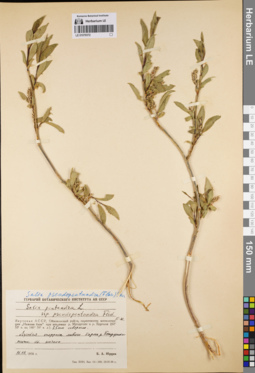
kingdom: Plantae
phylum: Tracheophyta
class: Magnoliopsida
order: Malpighiales
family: Salicaceae
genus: Salix
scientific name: Salix pseudopentandra
